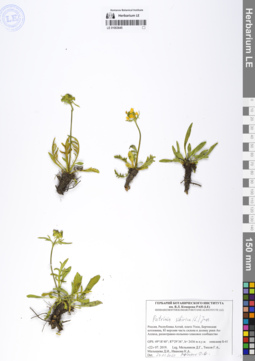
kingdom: Plantae
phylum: Tracheophyta
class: Magnoliopsida
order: Dipsacales
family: Caprifoliaceae
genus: Patrinia
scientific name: Patrinia sibirica
